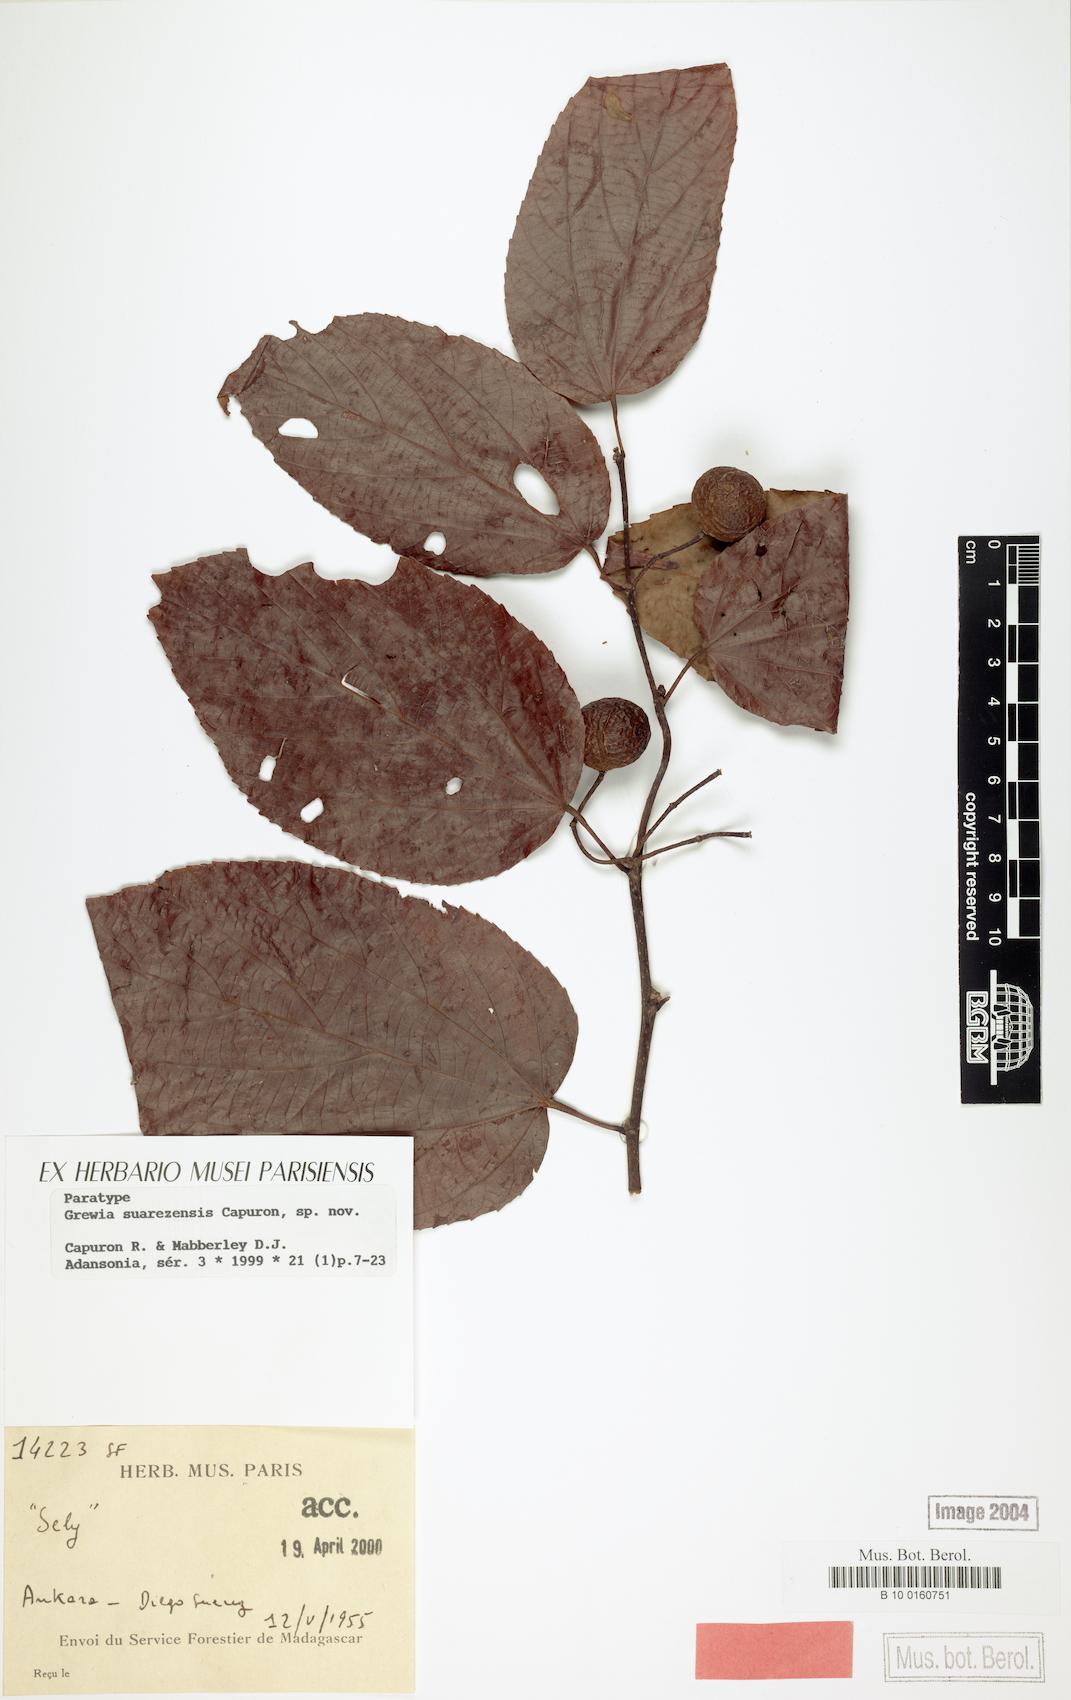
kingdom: Plantae
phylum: Tracheophyta
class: Magnoliopsida
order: Malvales
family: Malvaceae
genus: Grewia
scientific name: Grewia suarezensis
